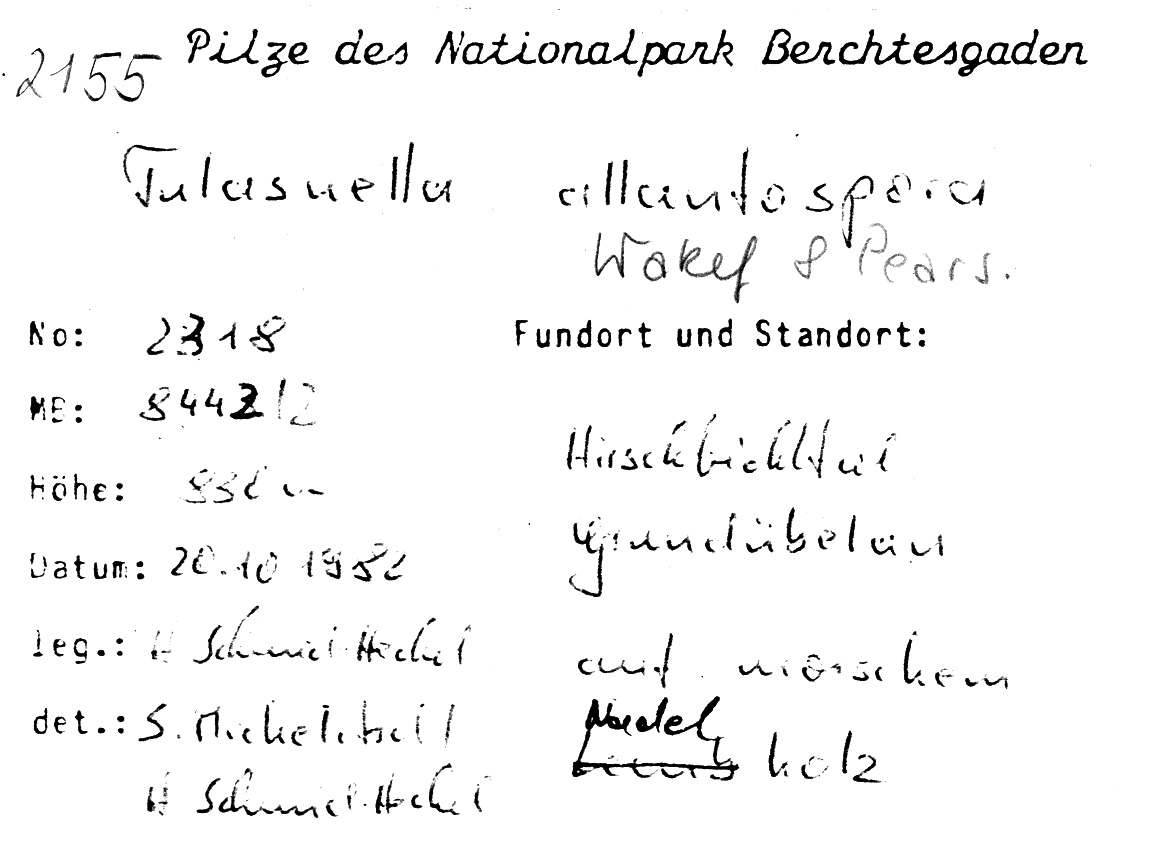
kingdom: Fungi
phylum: Basidiomycota
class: Agaricomycetes
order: Cantharellales
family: Tulasnellaceae
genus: Tulasnella
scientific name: Tulasnella allantospora
